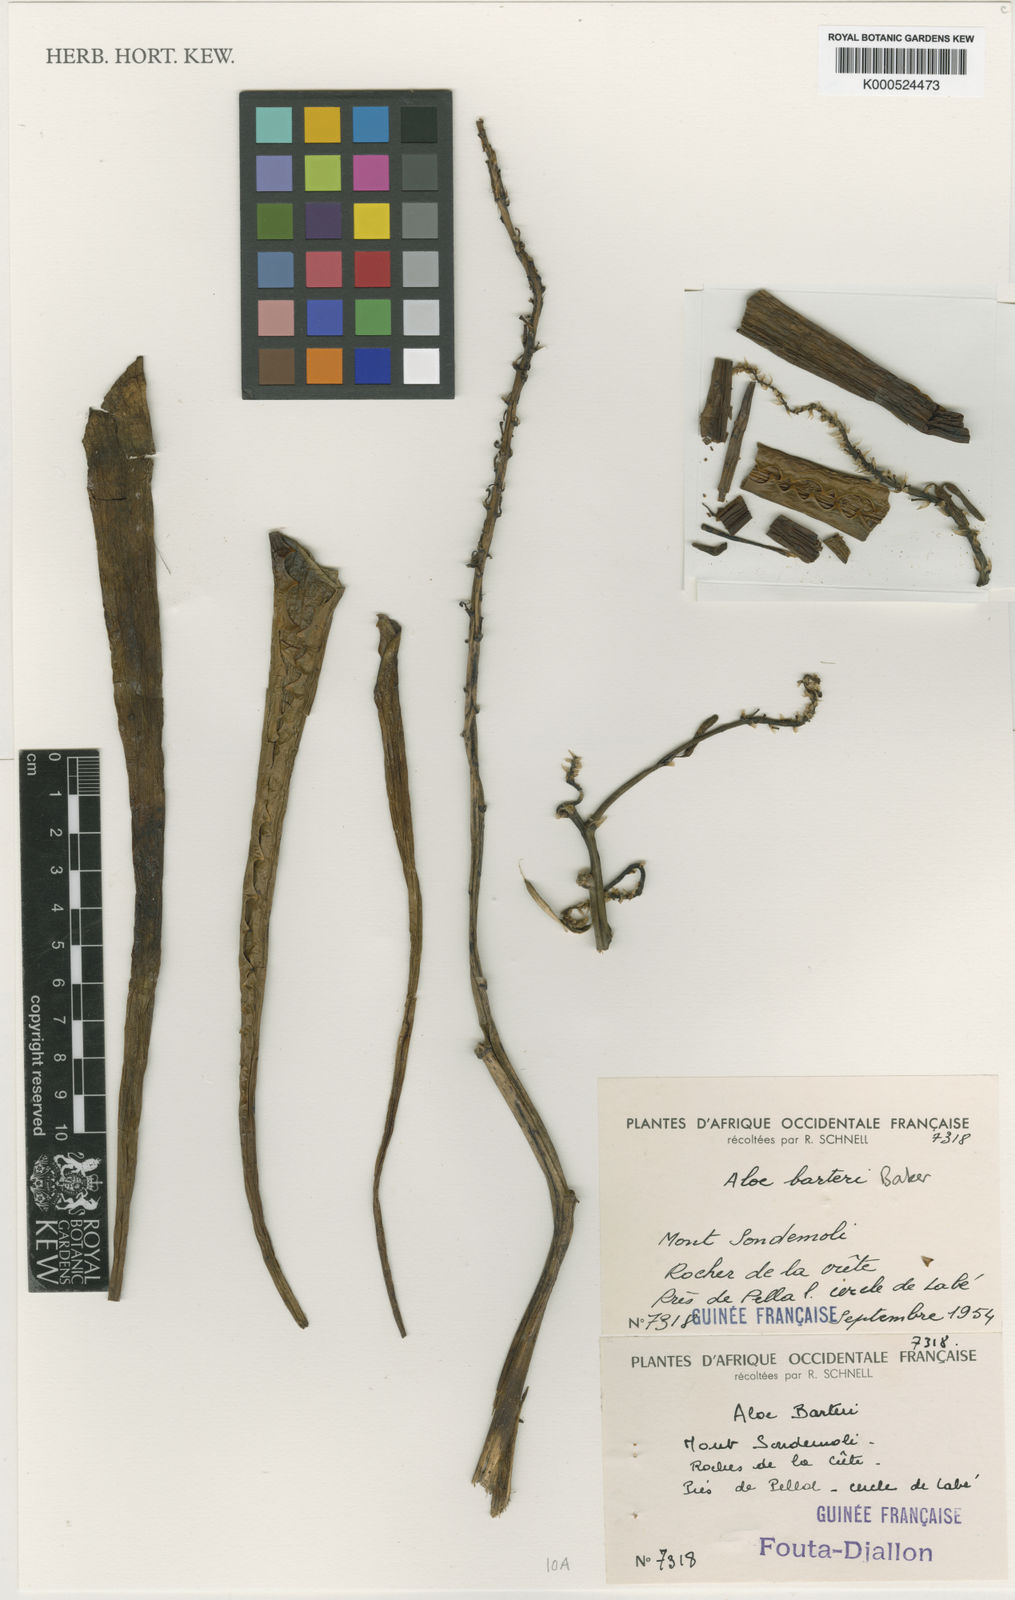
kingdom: Plantae
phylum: Tracheophyta
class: Liliopsida
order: Asparagales
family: Asphodelaceae
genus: Aloe
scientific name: Aloe schweinfurthii
